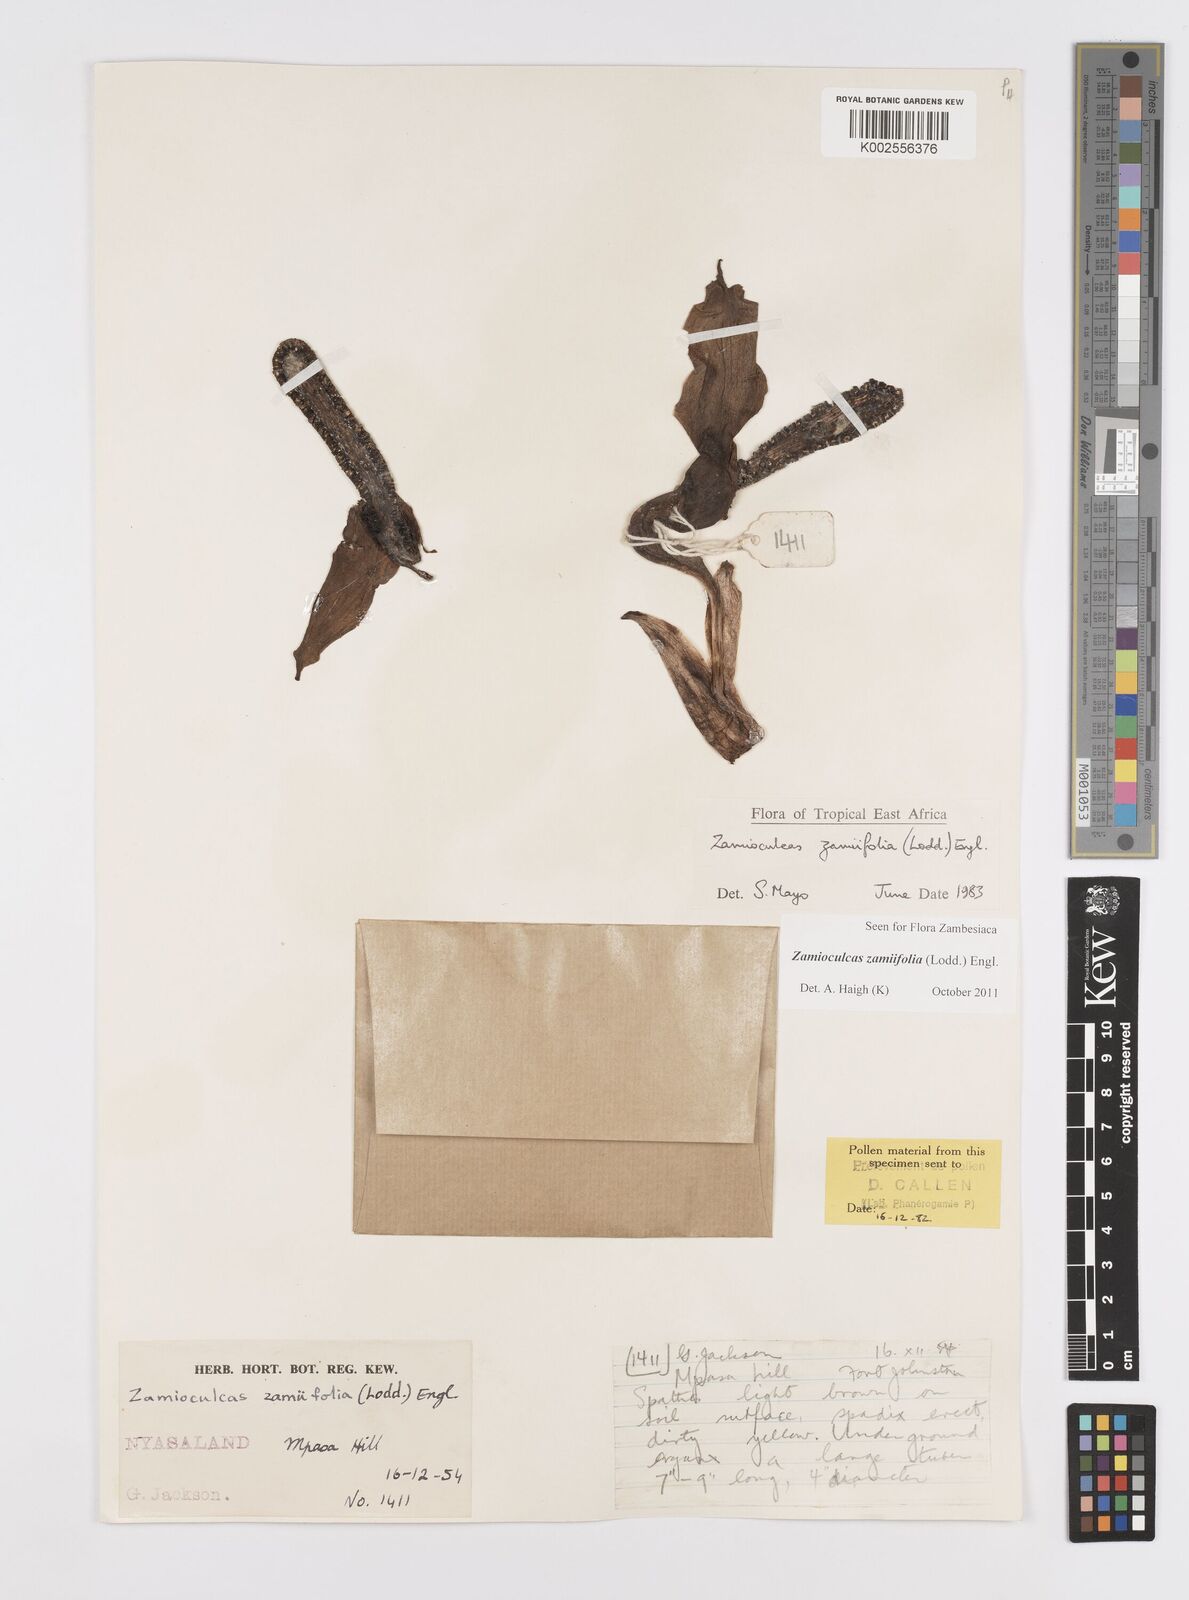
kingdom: Plantae
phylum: Tracheophyta
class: Liliopsida
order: Alismatales
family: Araceae
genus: Zamioculcas
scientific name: Zamioculcas zamiifolia
